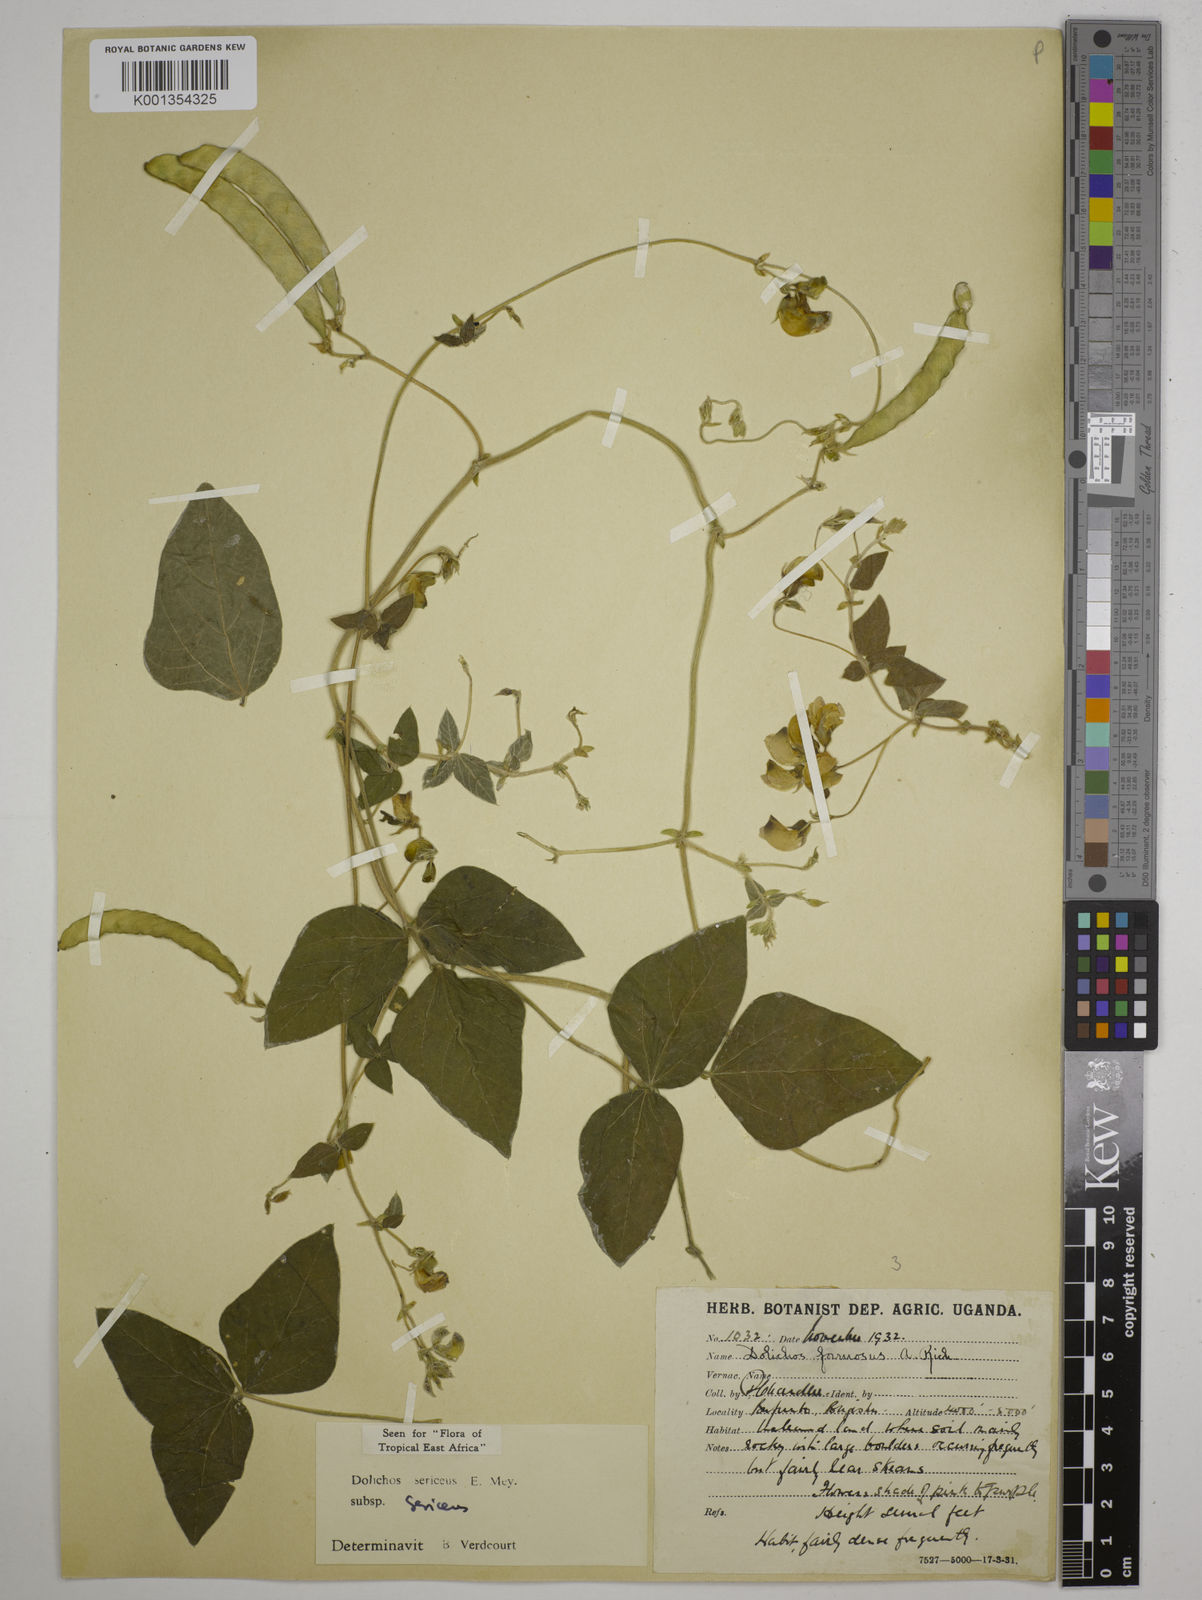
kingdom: Plantae
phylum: Tracheophyta
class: Magnoliopsida
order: Fabales
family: Fabaceae
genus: Dolichos
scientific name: Dolichos sericeus
